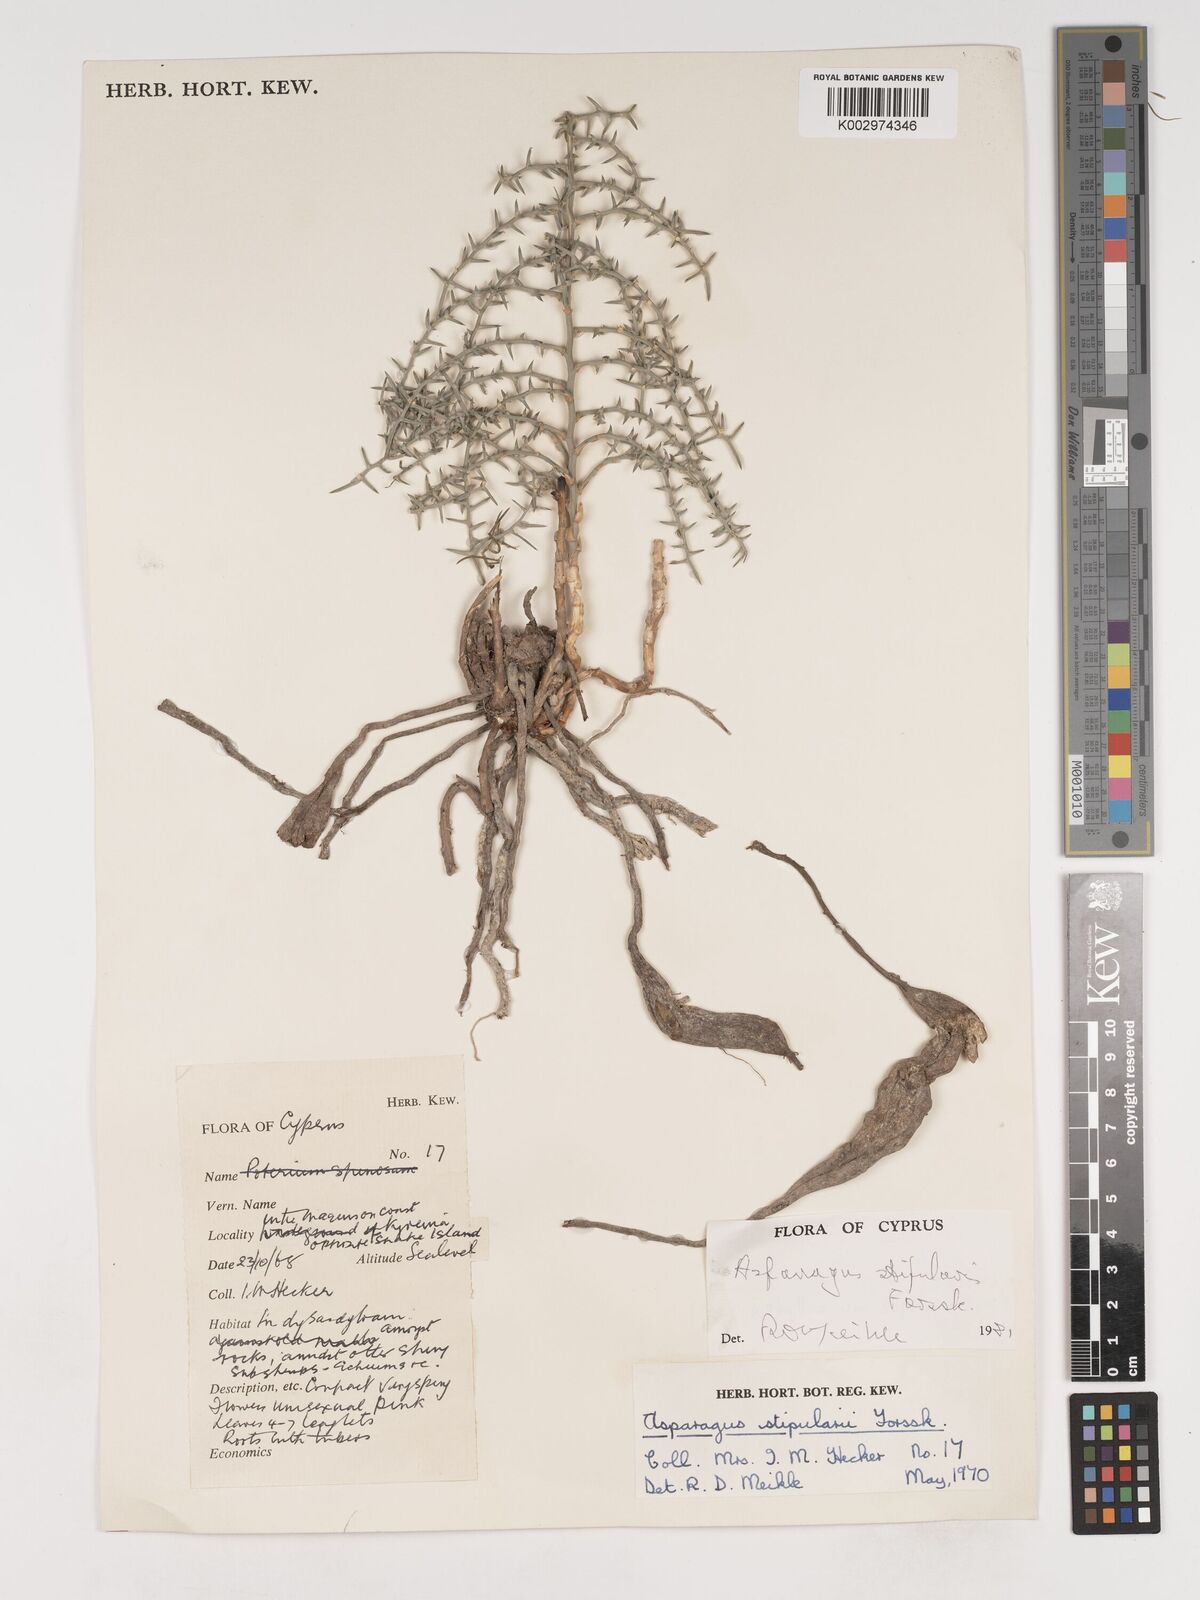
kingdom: Plantae
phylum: Tracheophyta
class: Liliopsida
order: Asparagales
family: Asparagaceae
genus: Asparagus
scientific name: Asparagus horridus
